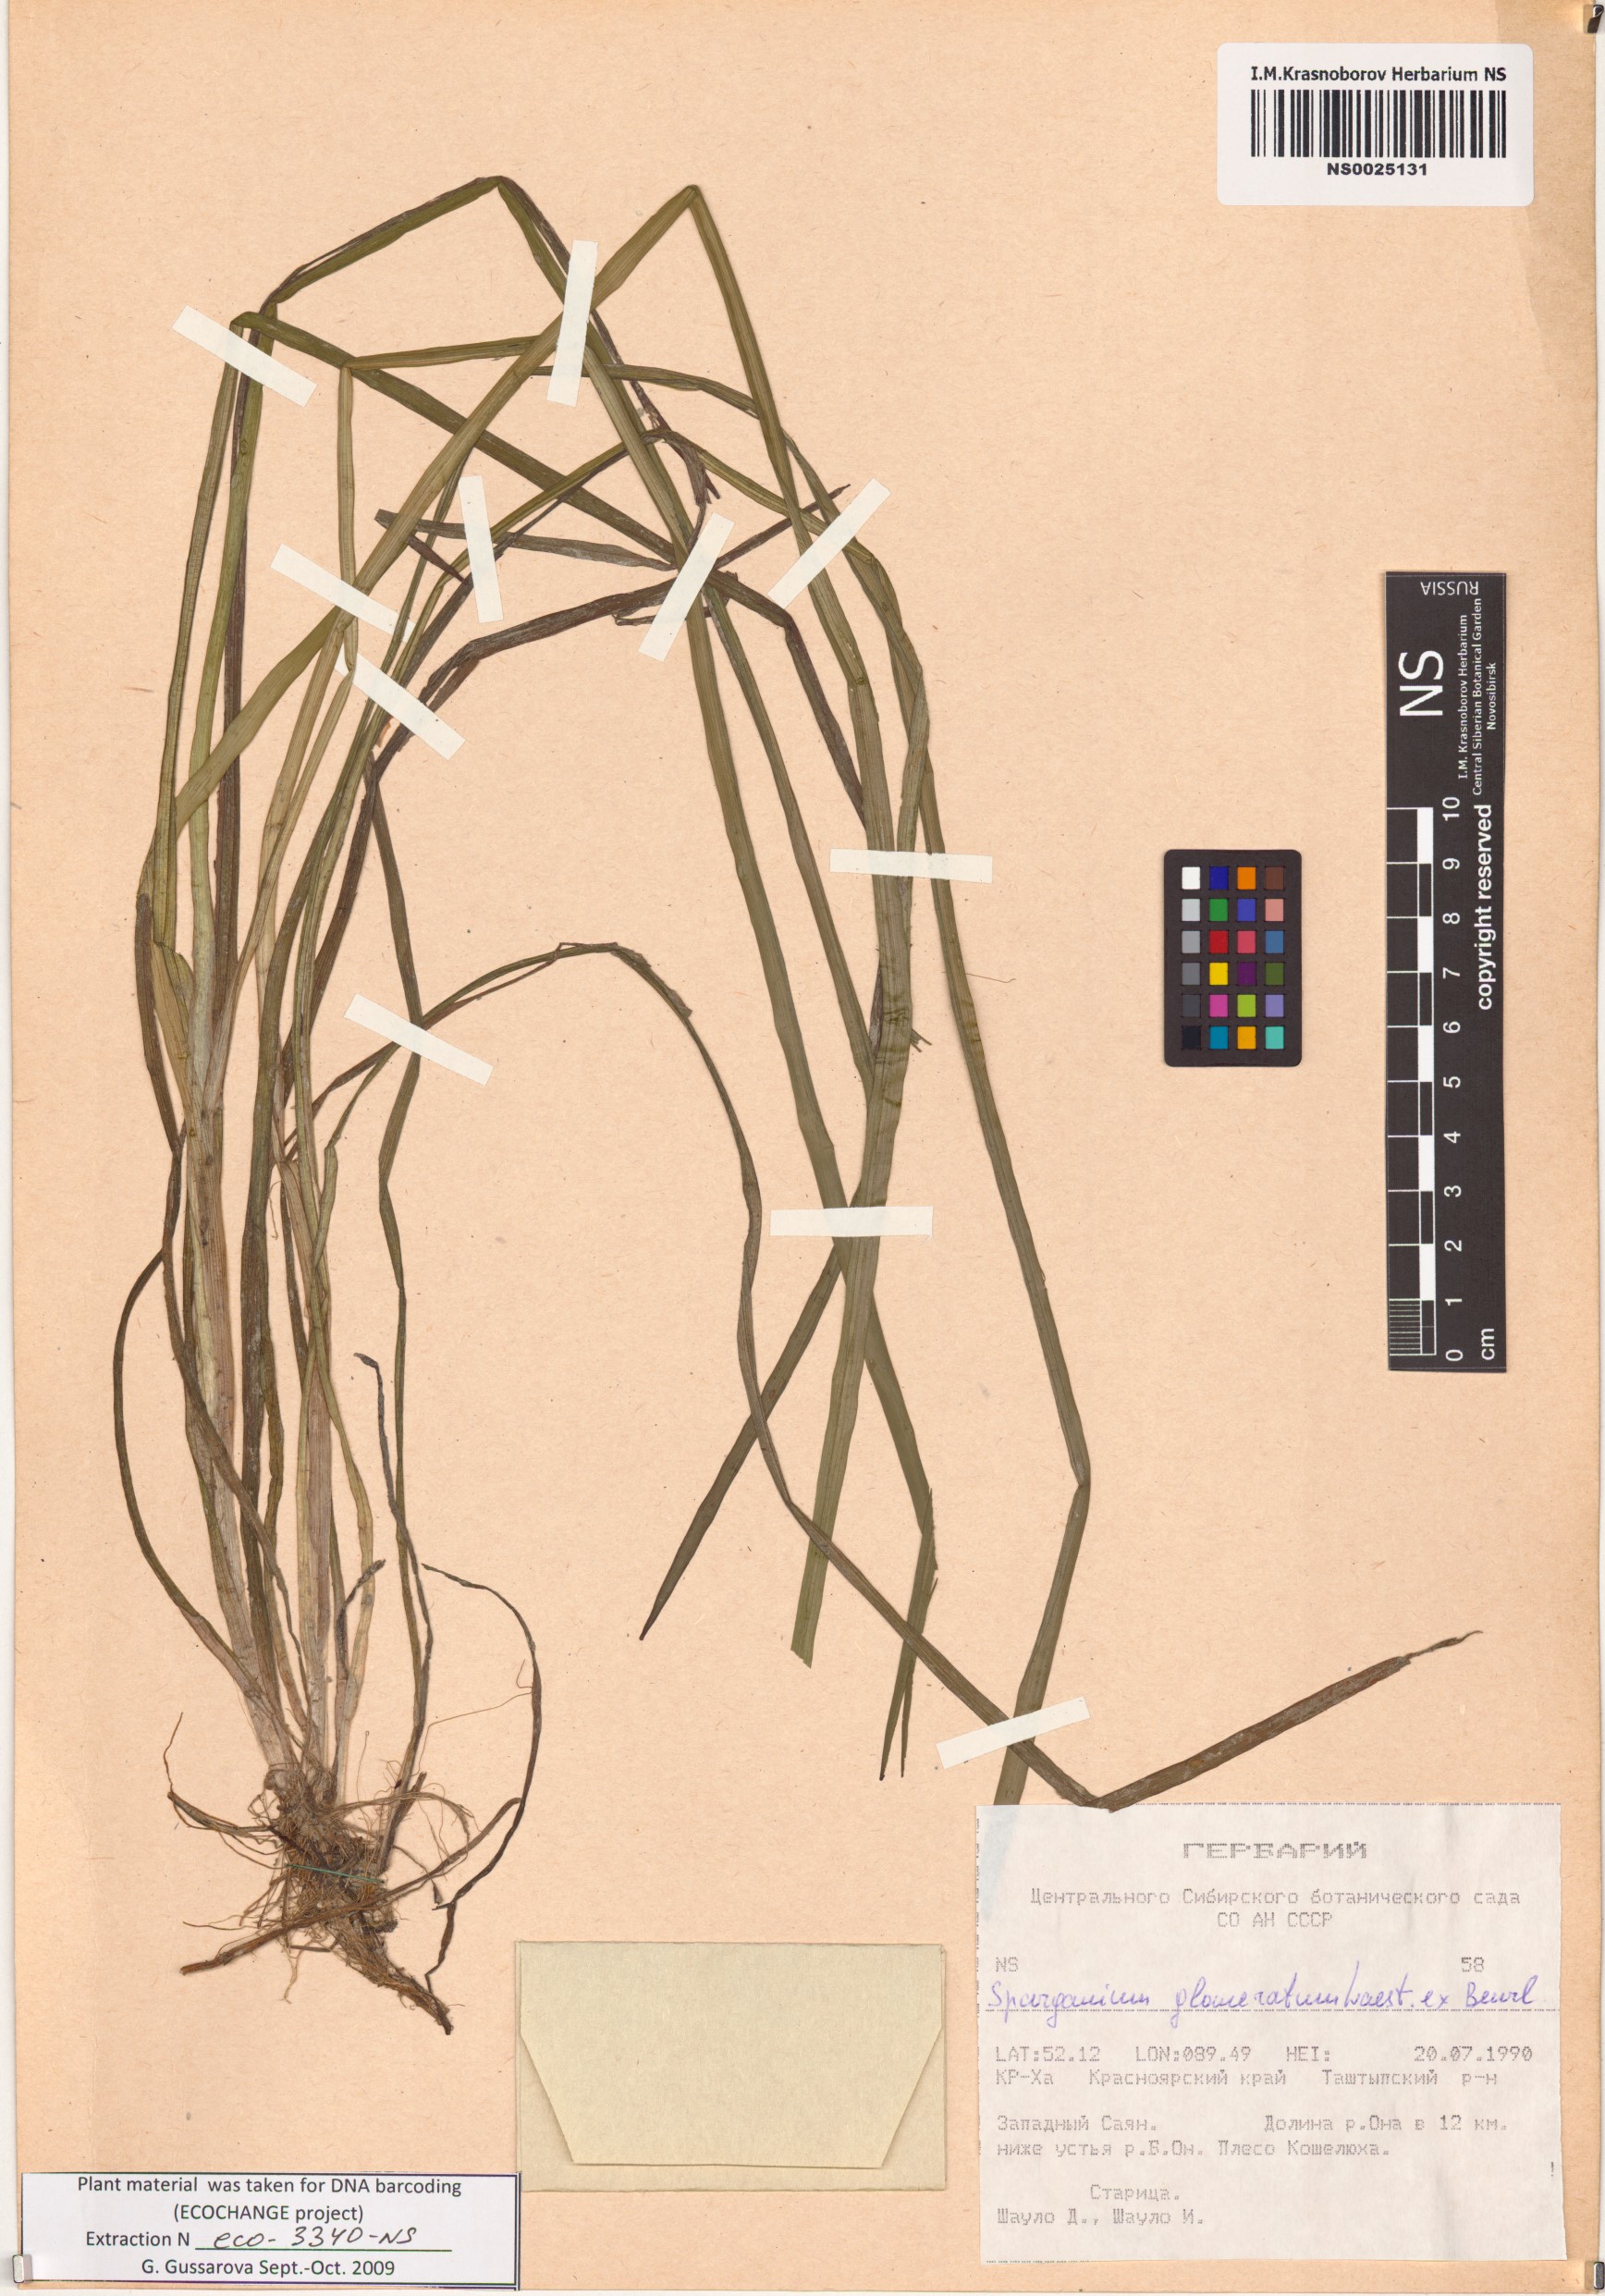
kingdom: Plantae
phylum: Tracheophyta
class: Liliopsida
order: Poales
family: Typhaceae
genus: Sparganium
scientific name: Sparganium glomeratum
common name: Clustered burreed
